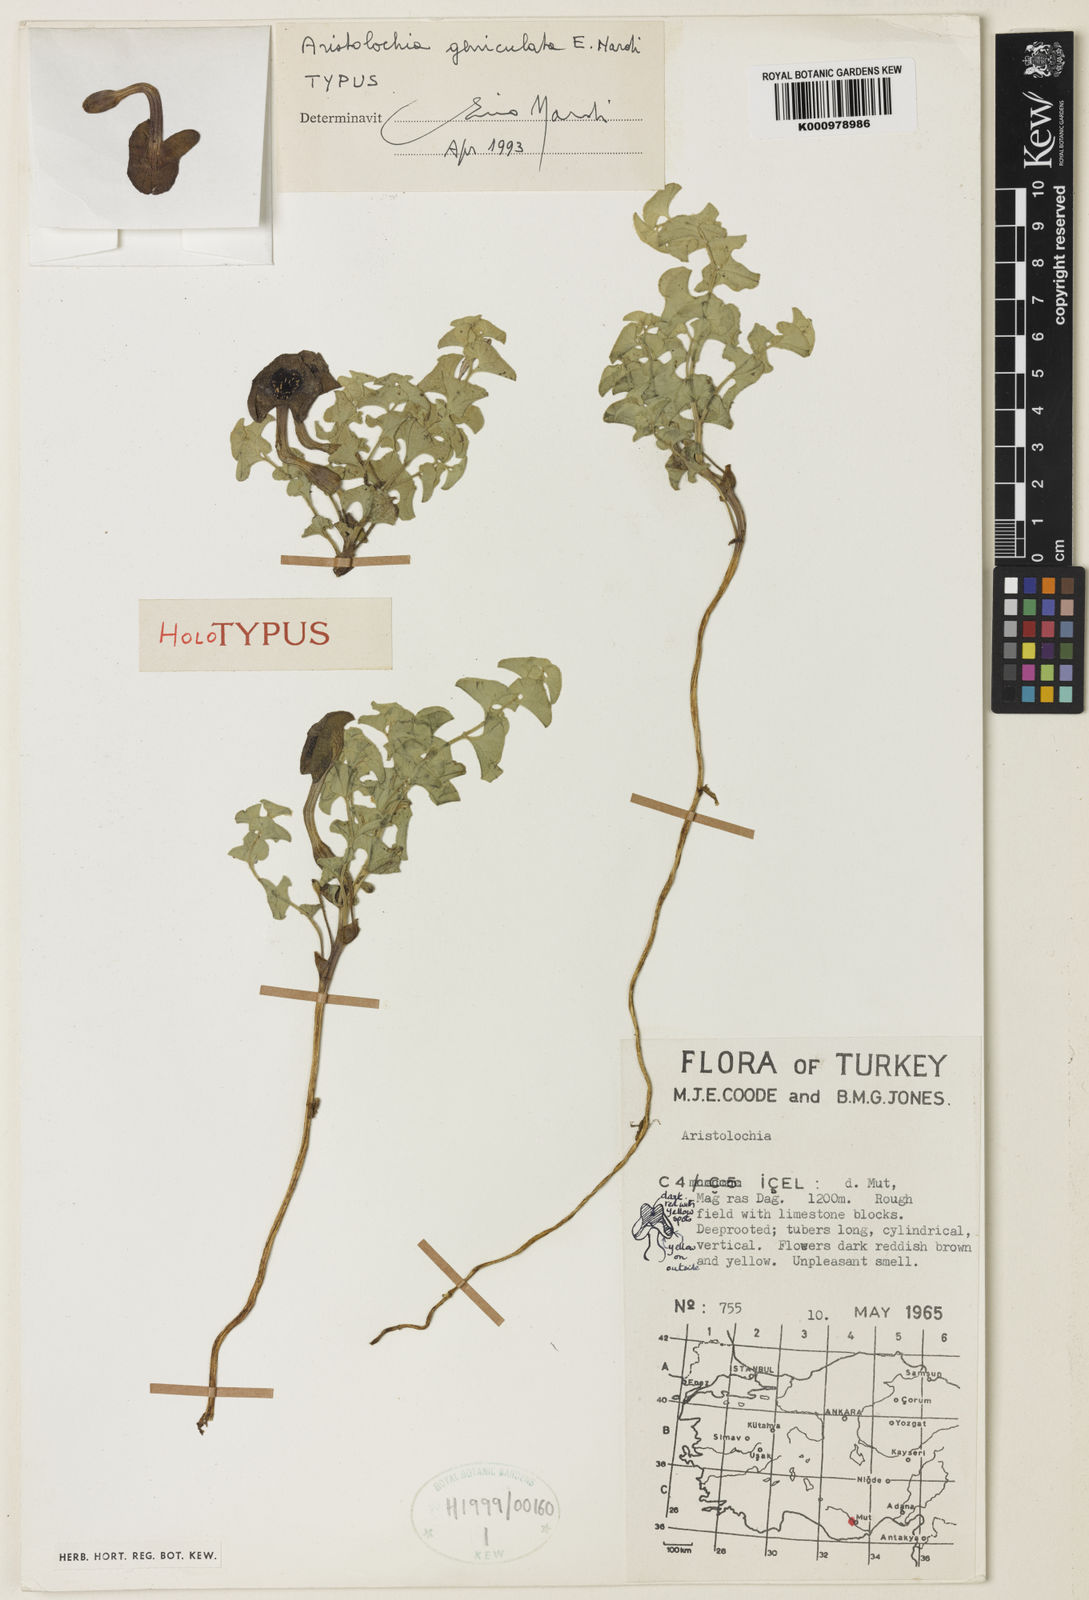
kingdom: Plantae
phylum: Tracheophyta
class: Magnoliopsida
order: Piperales
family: Aristolochiaceae
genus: Aristolochia
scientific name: Aristolochia geniculata
